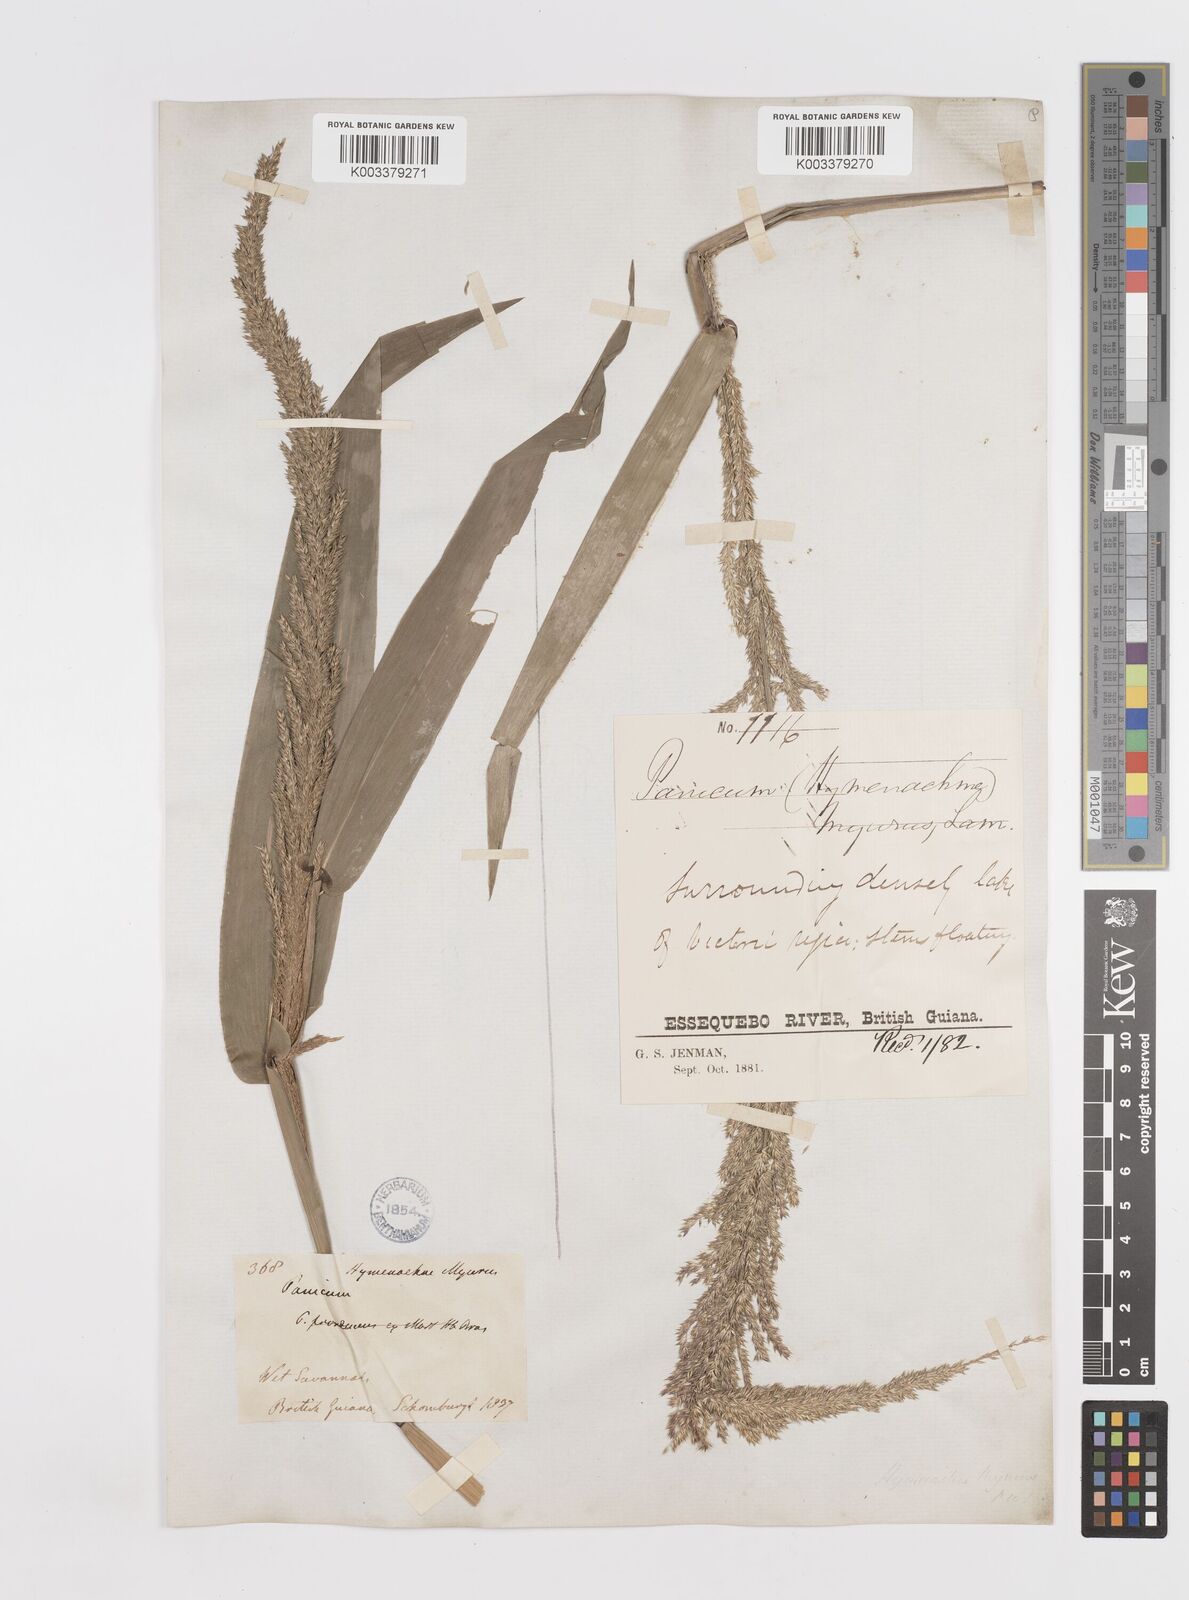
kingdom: Plantae
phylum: Tracheophyta
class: Liliopsida
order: Poales
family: Poaceae
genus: Hymenachne
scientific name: Hymenachne amplexicaulis
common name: Olive hymenachne
